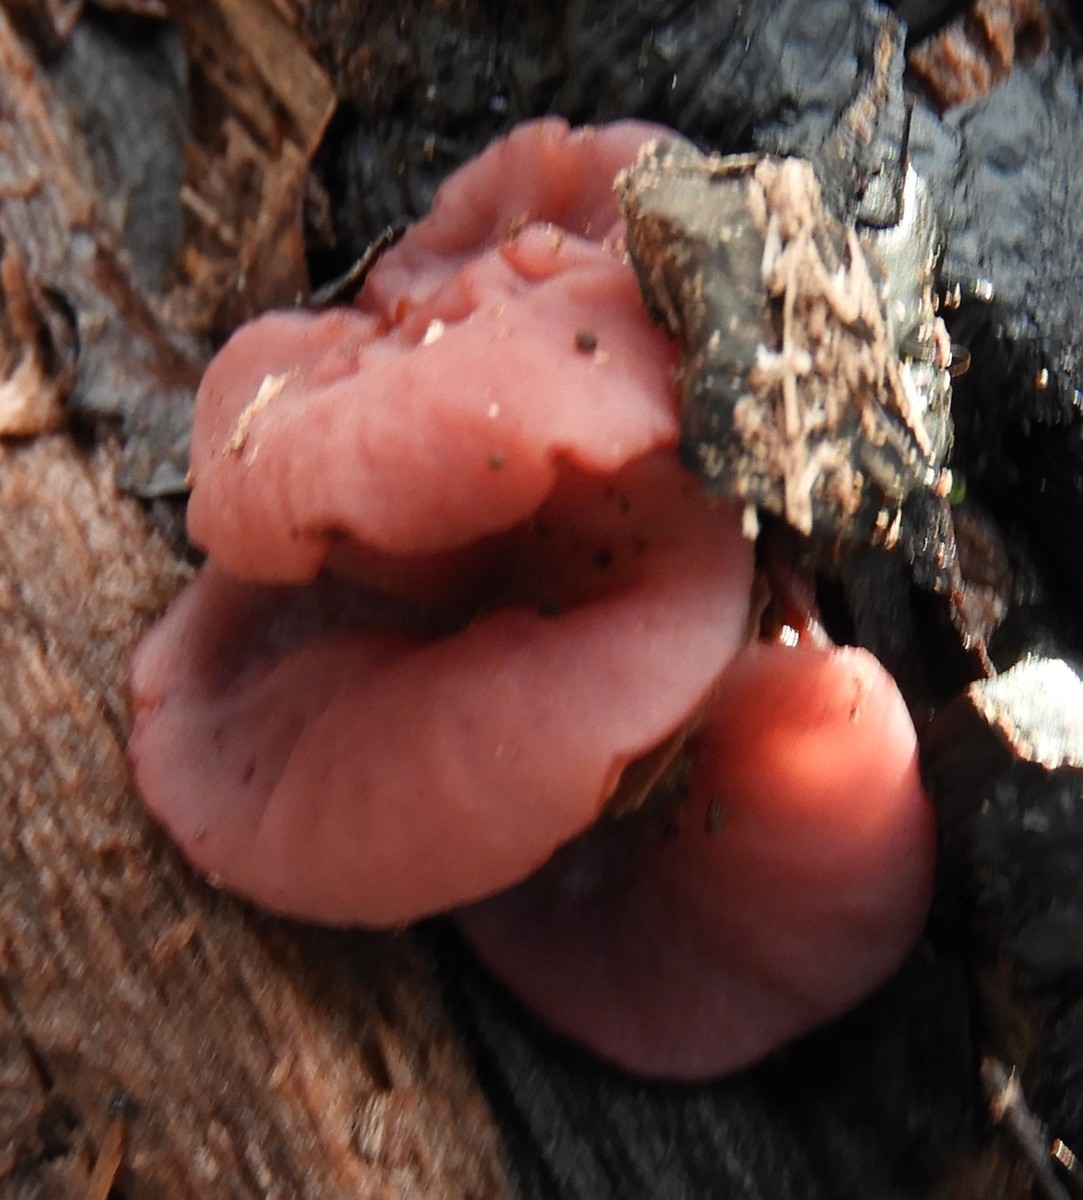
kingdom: Fungi
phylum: Ascomycota
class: Leotiomycetes
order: Helotiales
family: Gelatinodiscaceae
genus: Ascocoryne
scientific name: Ascocoryne cylichnium
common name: stor sejskive
